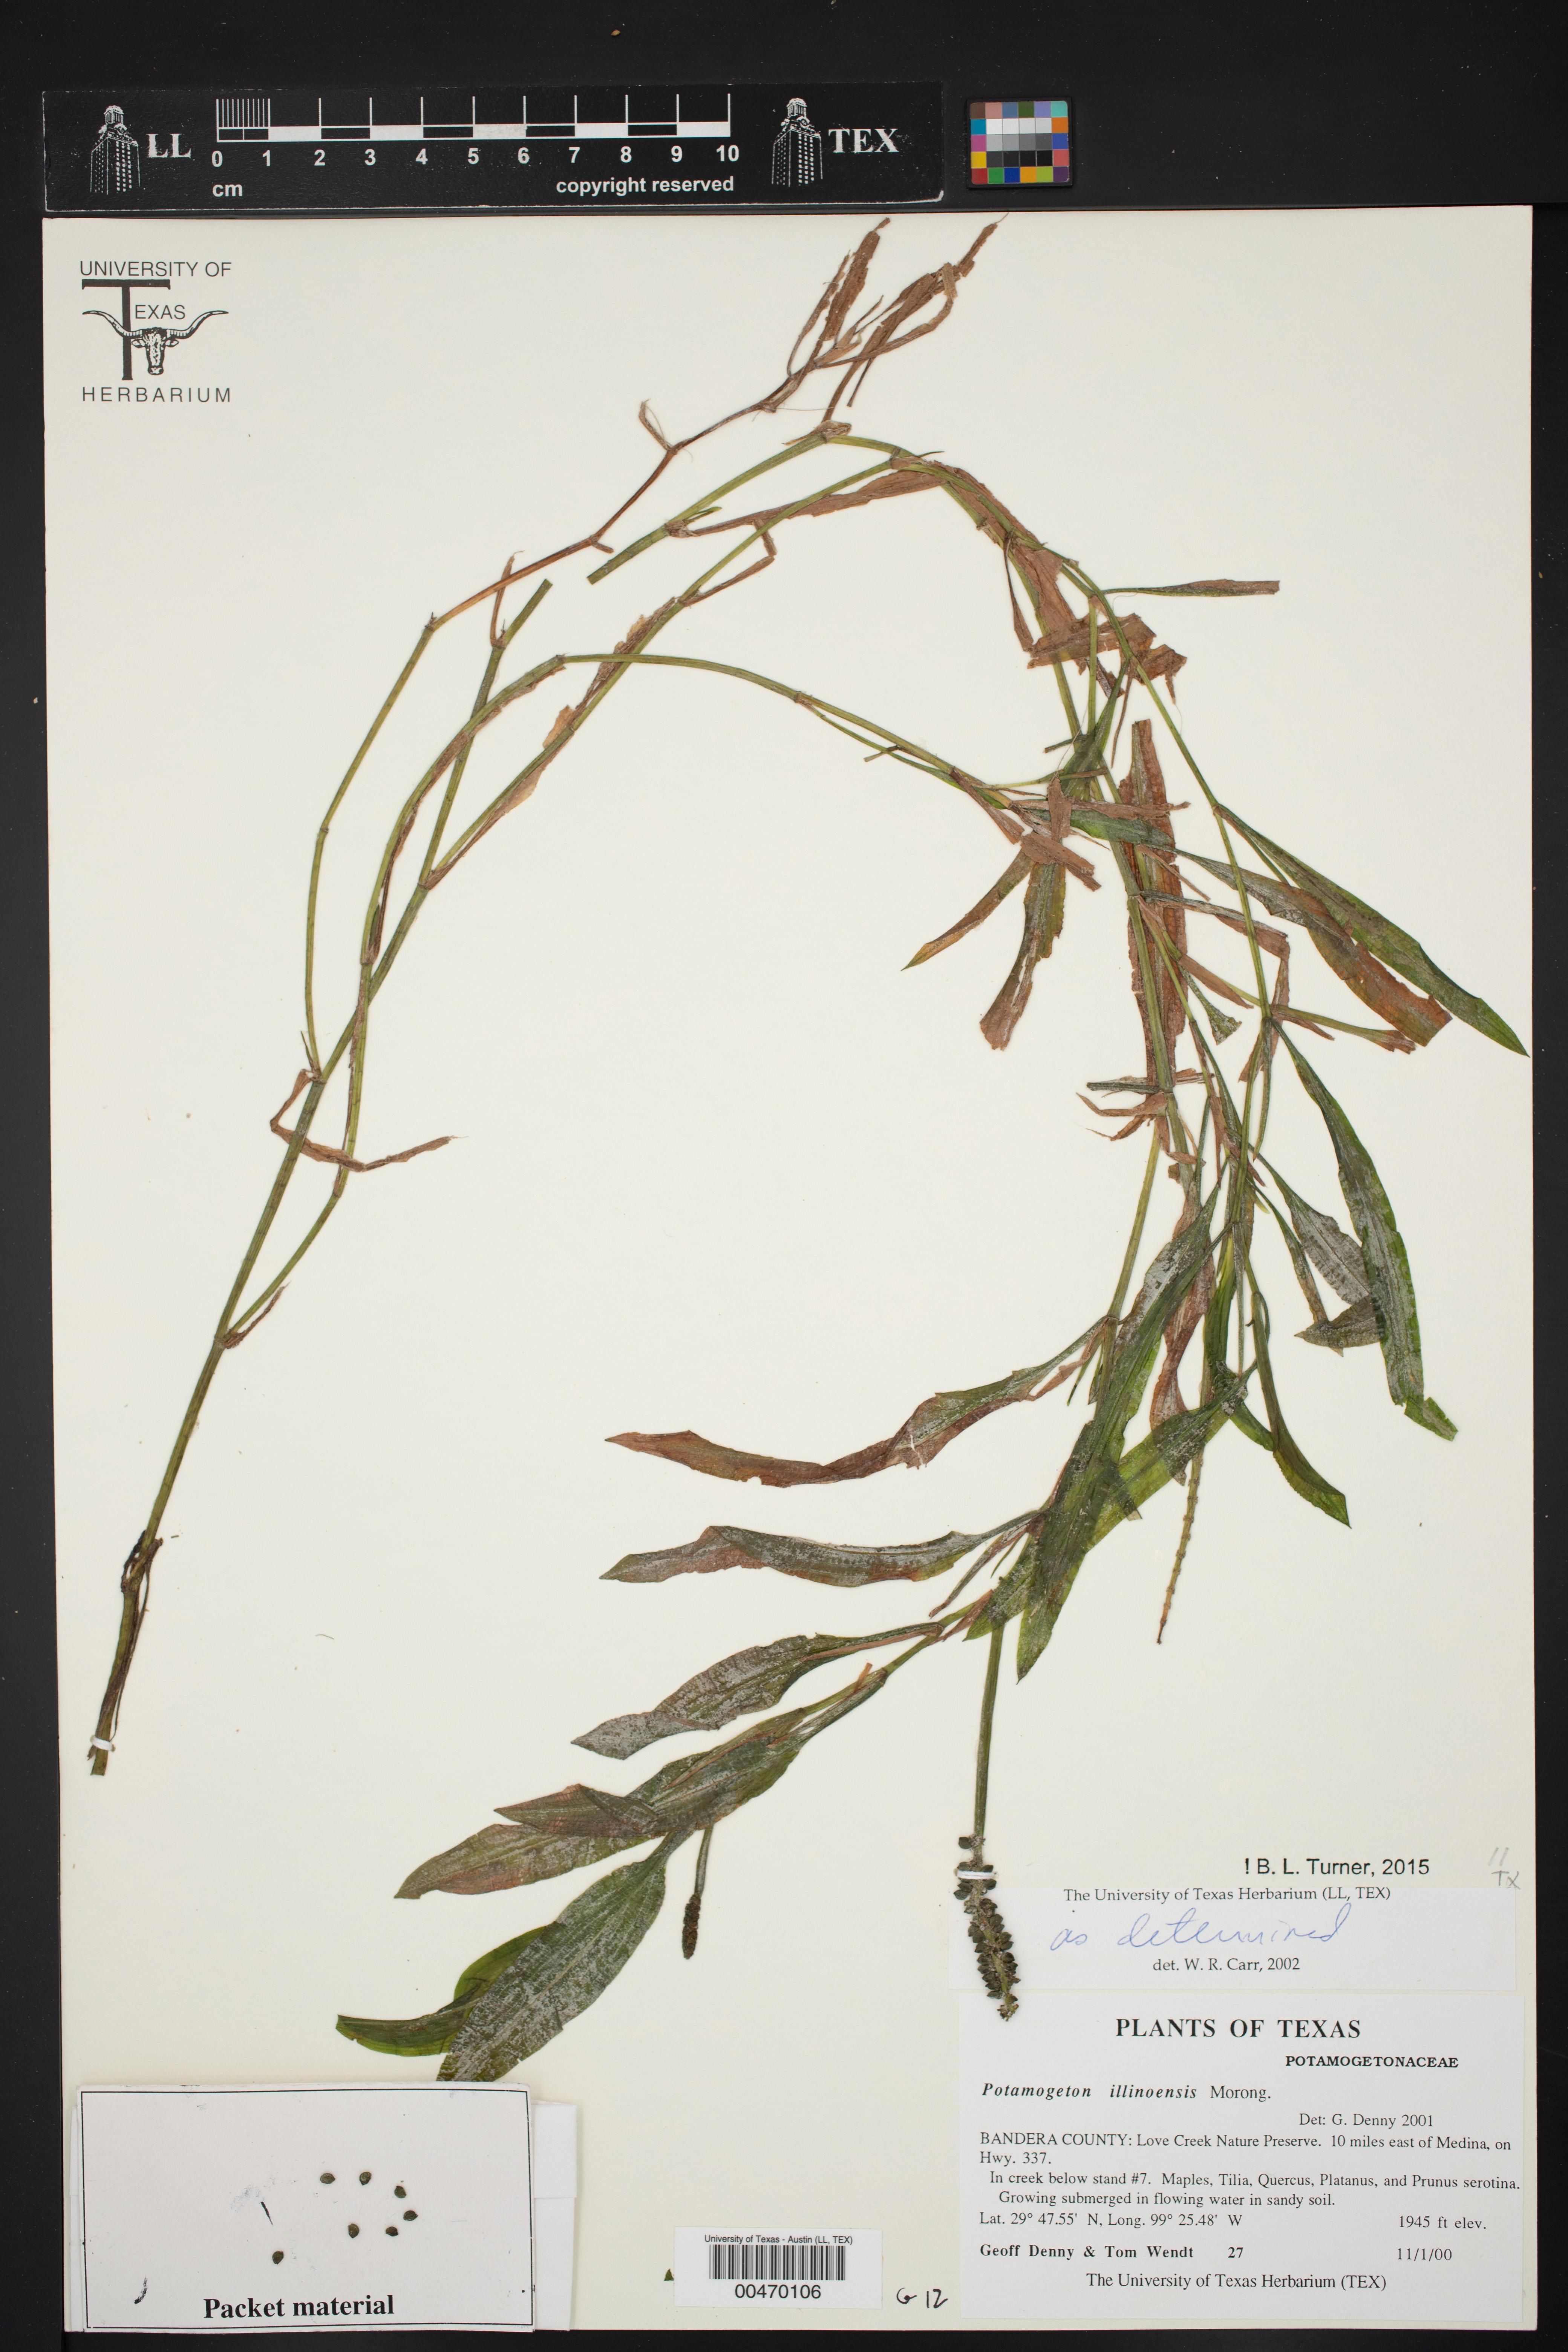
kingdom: Plantae
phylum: Tracheophyta
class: Liliopsida
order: Alismatales
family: Potamogetonaceae
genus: Potamogeton
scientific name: Potamogeton illinoensis
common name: Illinois pondweed
